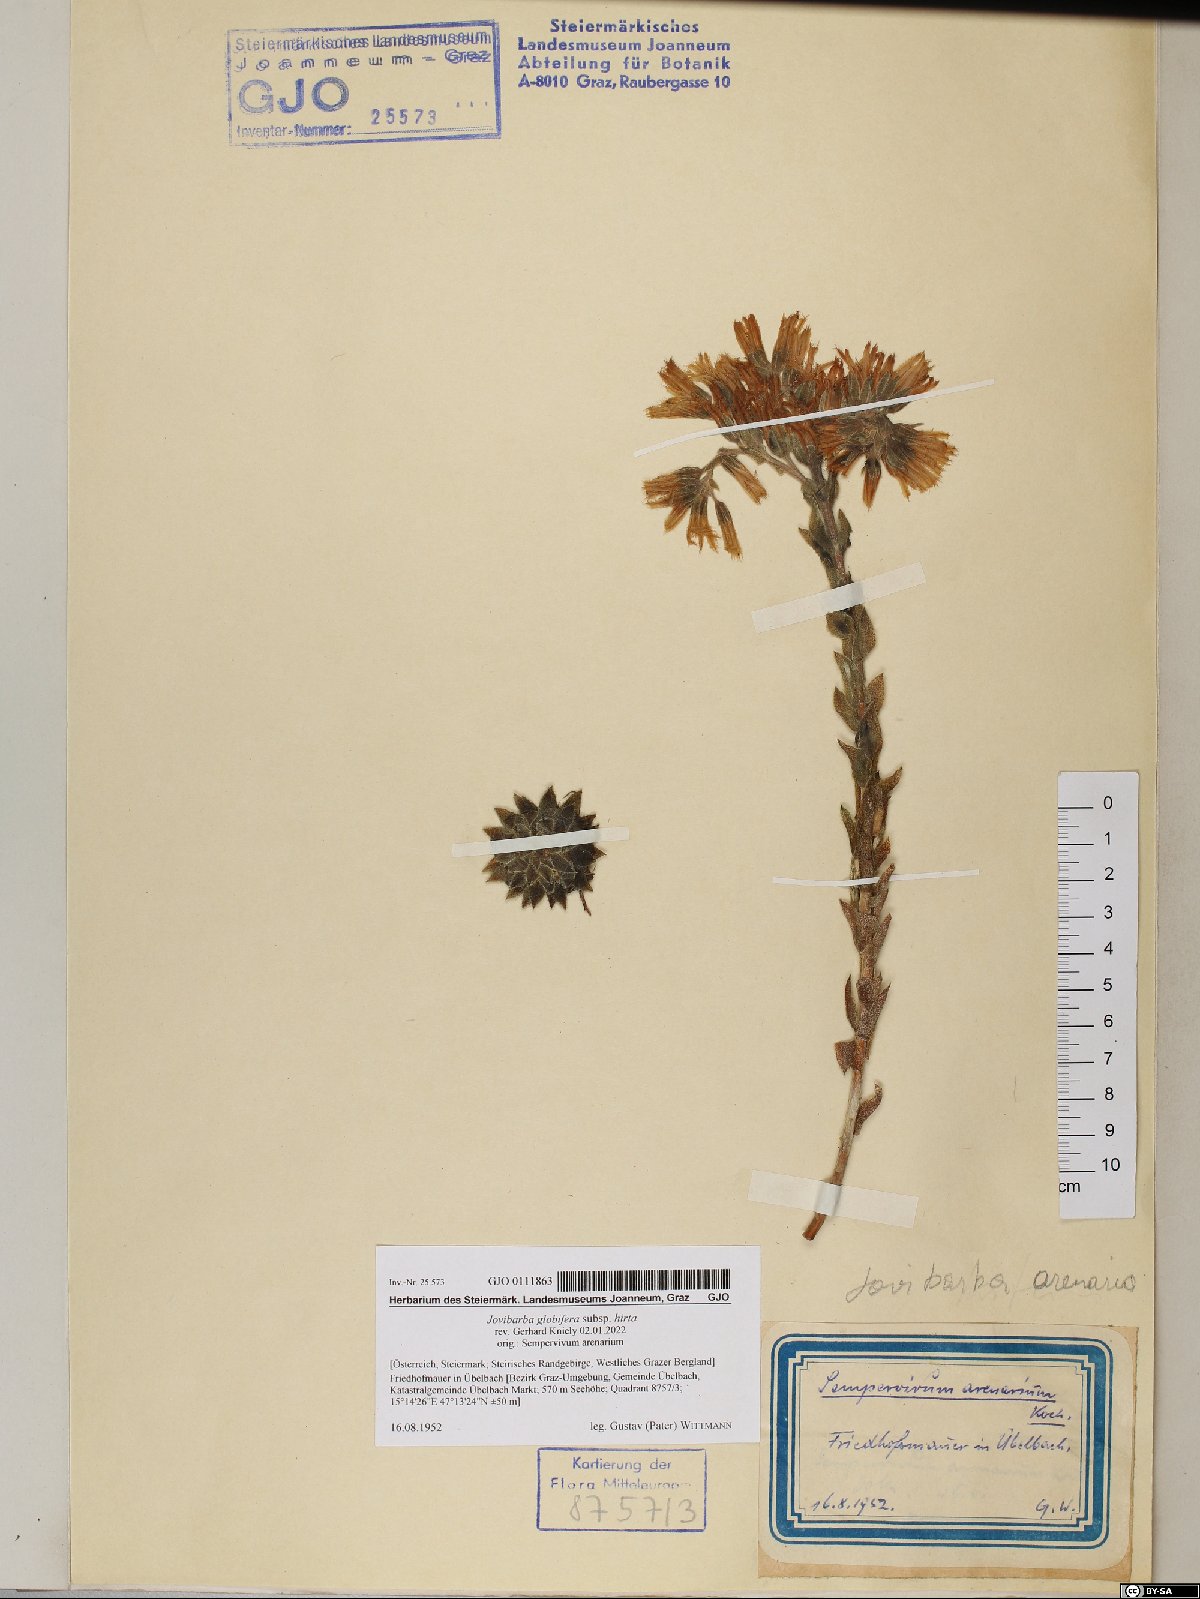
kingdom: Plantae
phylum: Tracheophyta
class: Magnoliopsida
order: Saxifragales
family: Crassulaceae
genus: Sempervivum
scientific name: Sempervivum globiferum
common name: Rolling hen-and-chicks
